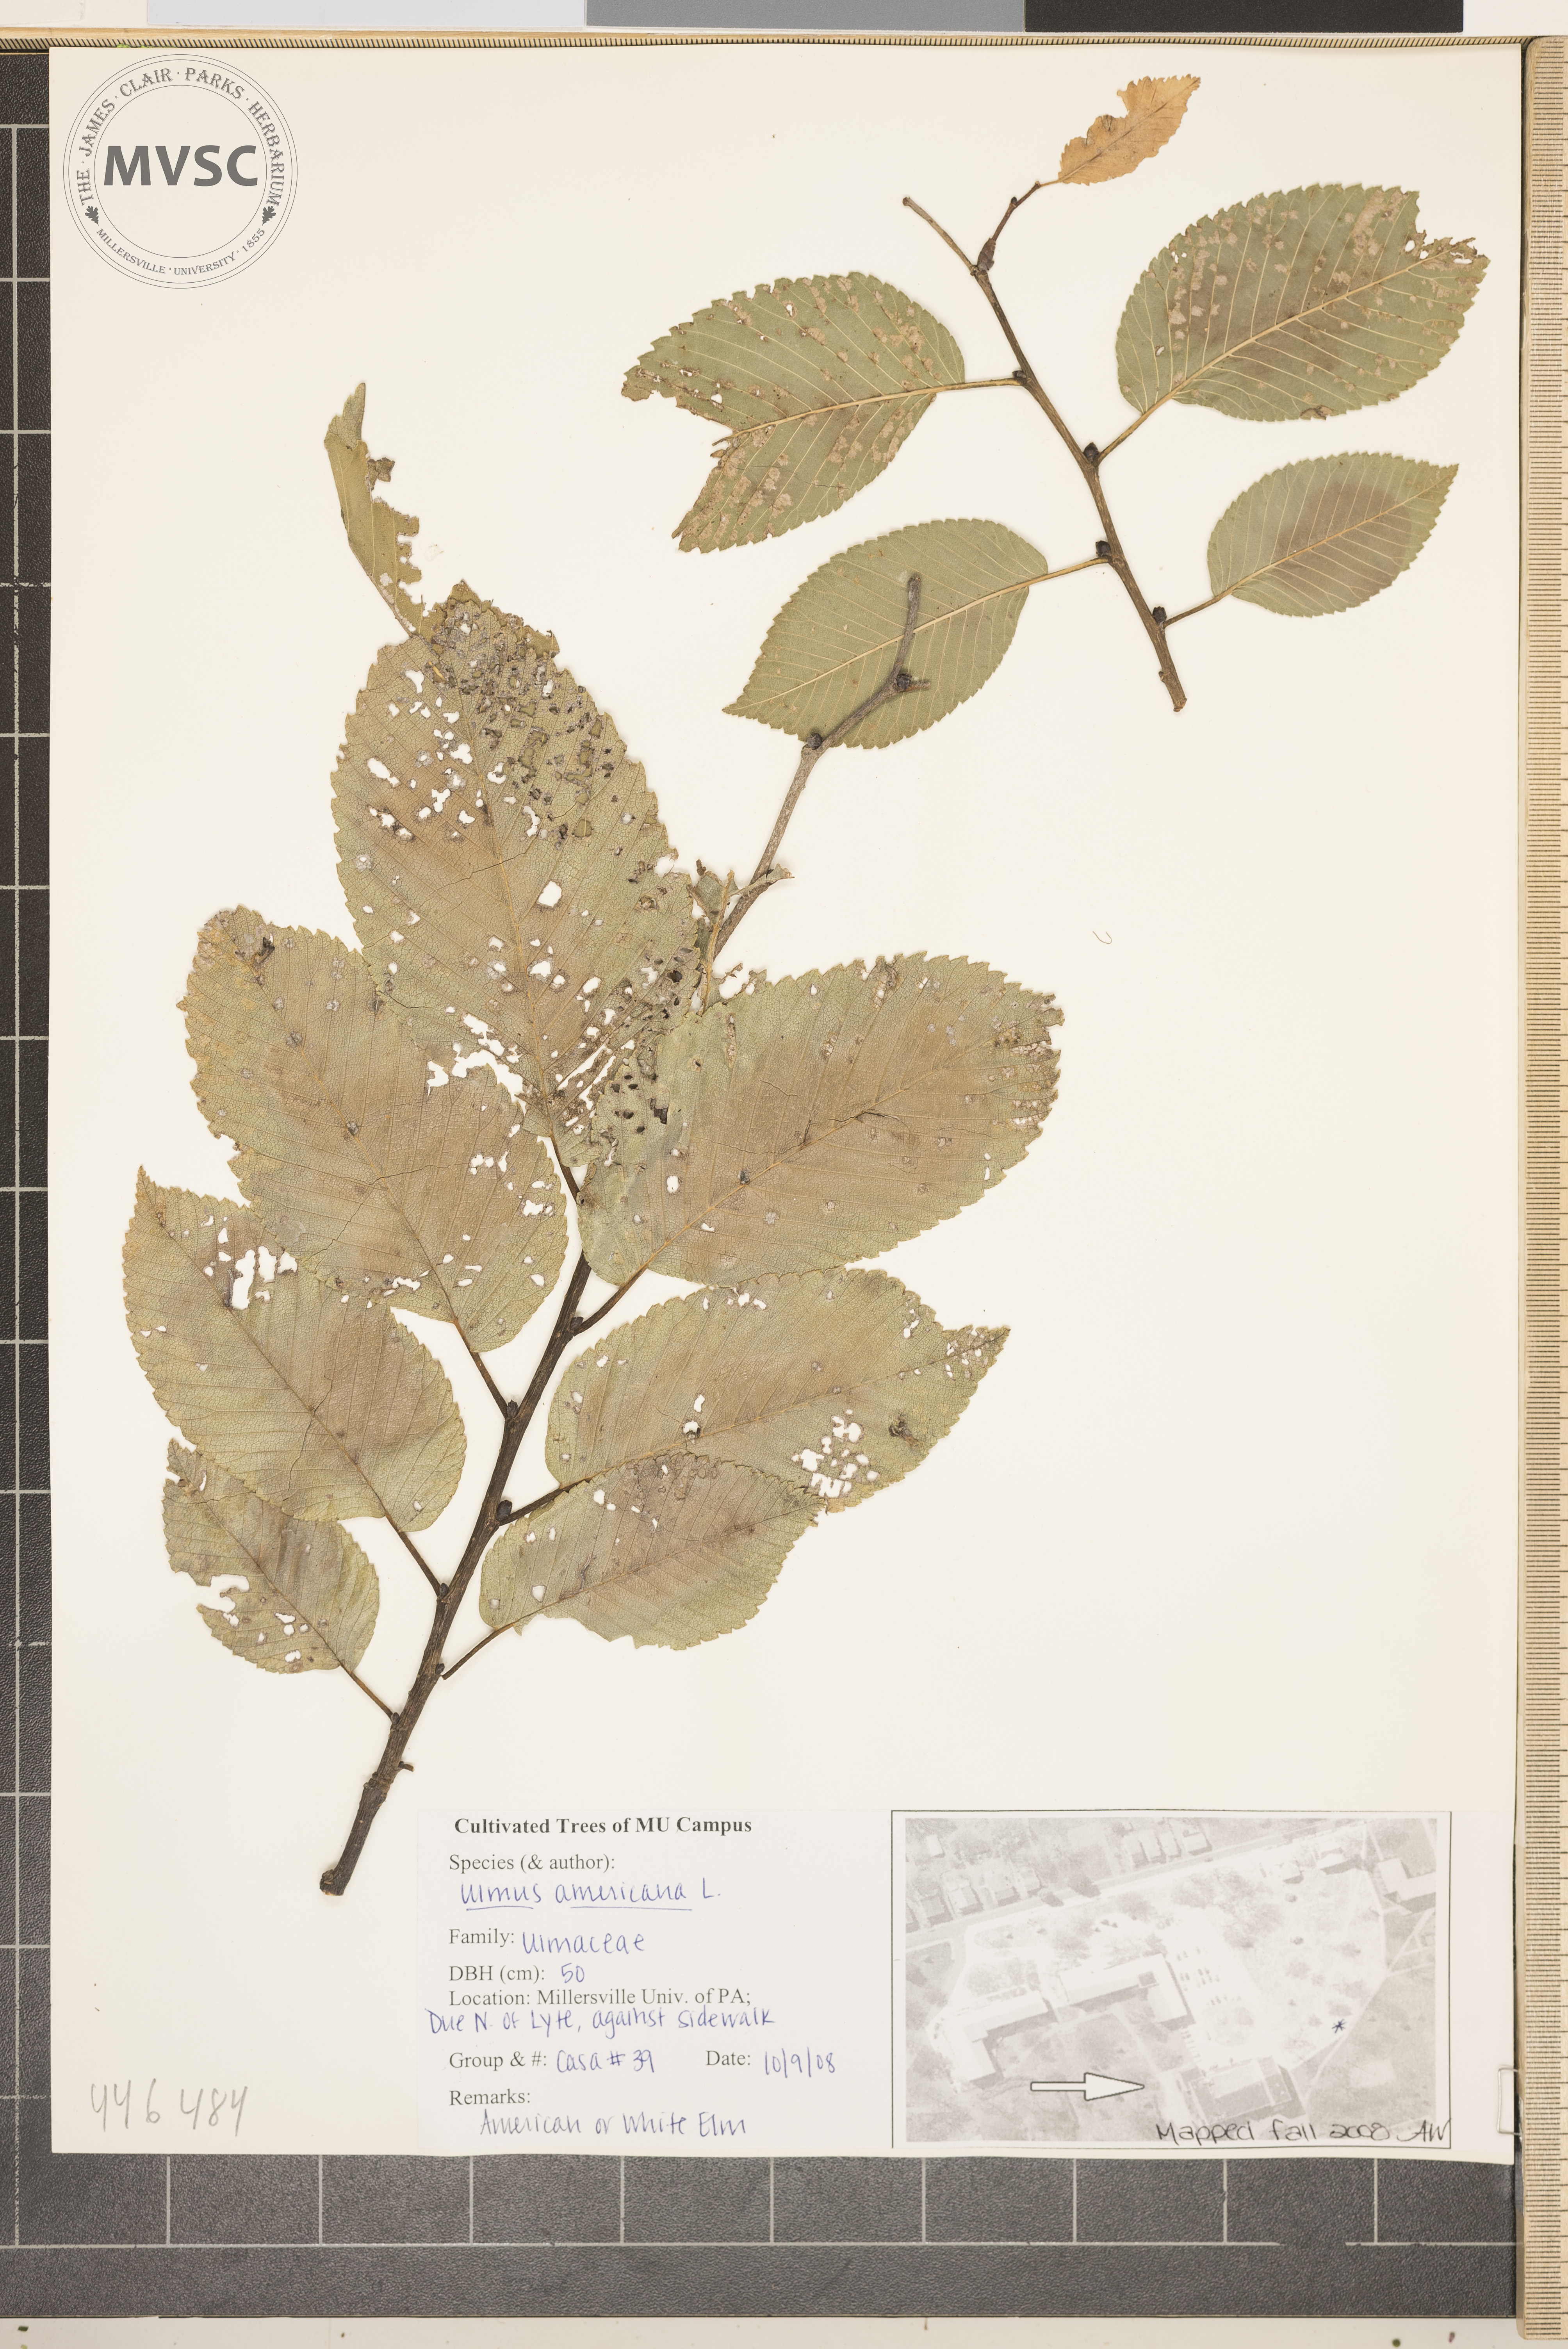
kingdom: Plantae
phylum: Tracheophyta
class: Magnoliopsida
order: Rosales
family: Ulmaceae
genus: Ulmus
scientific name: Ulmus americana
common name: American elm
